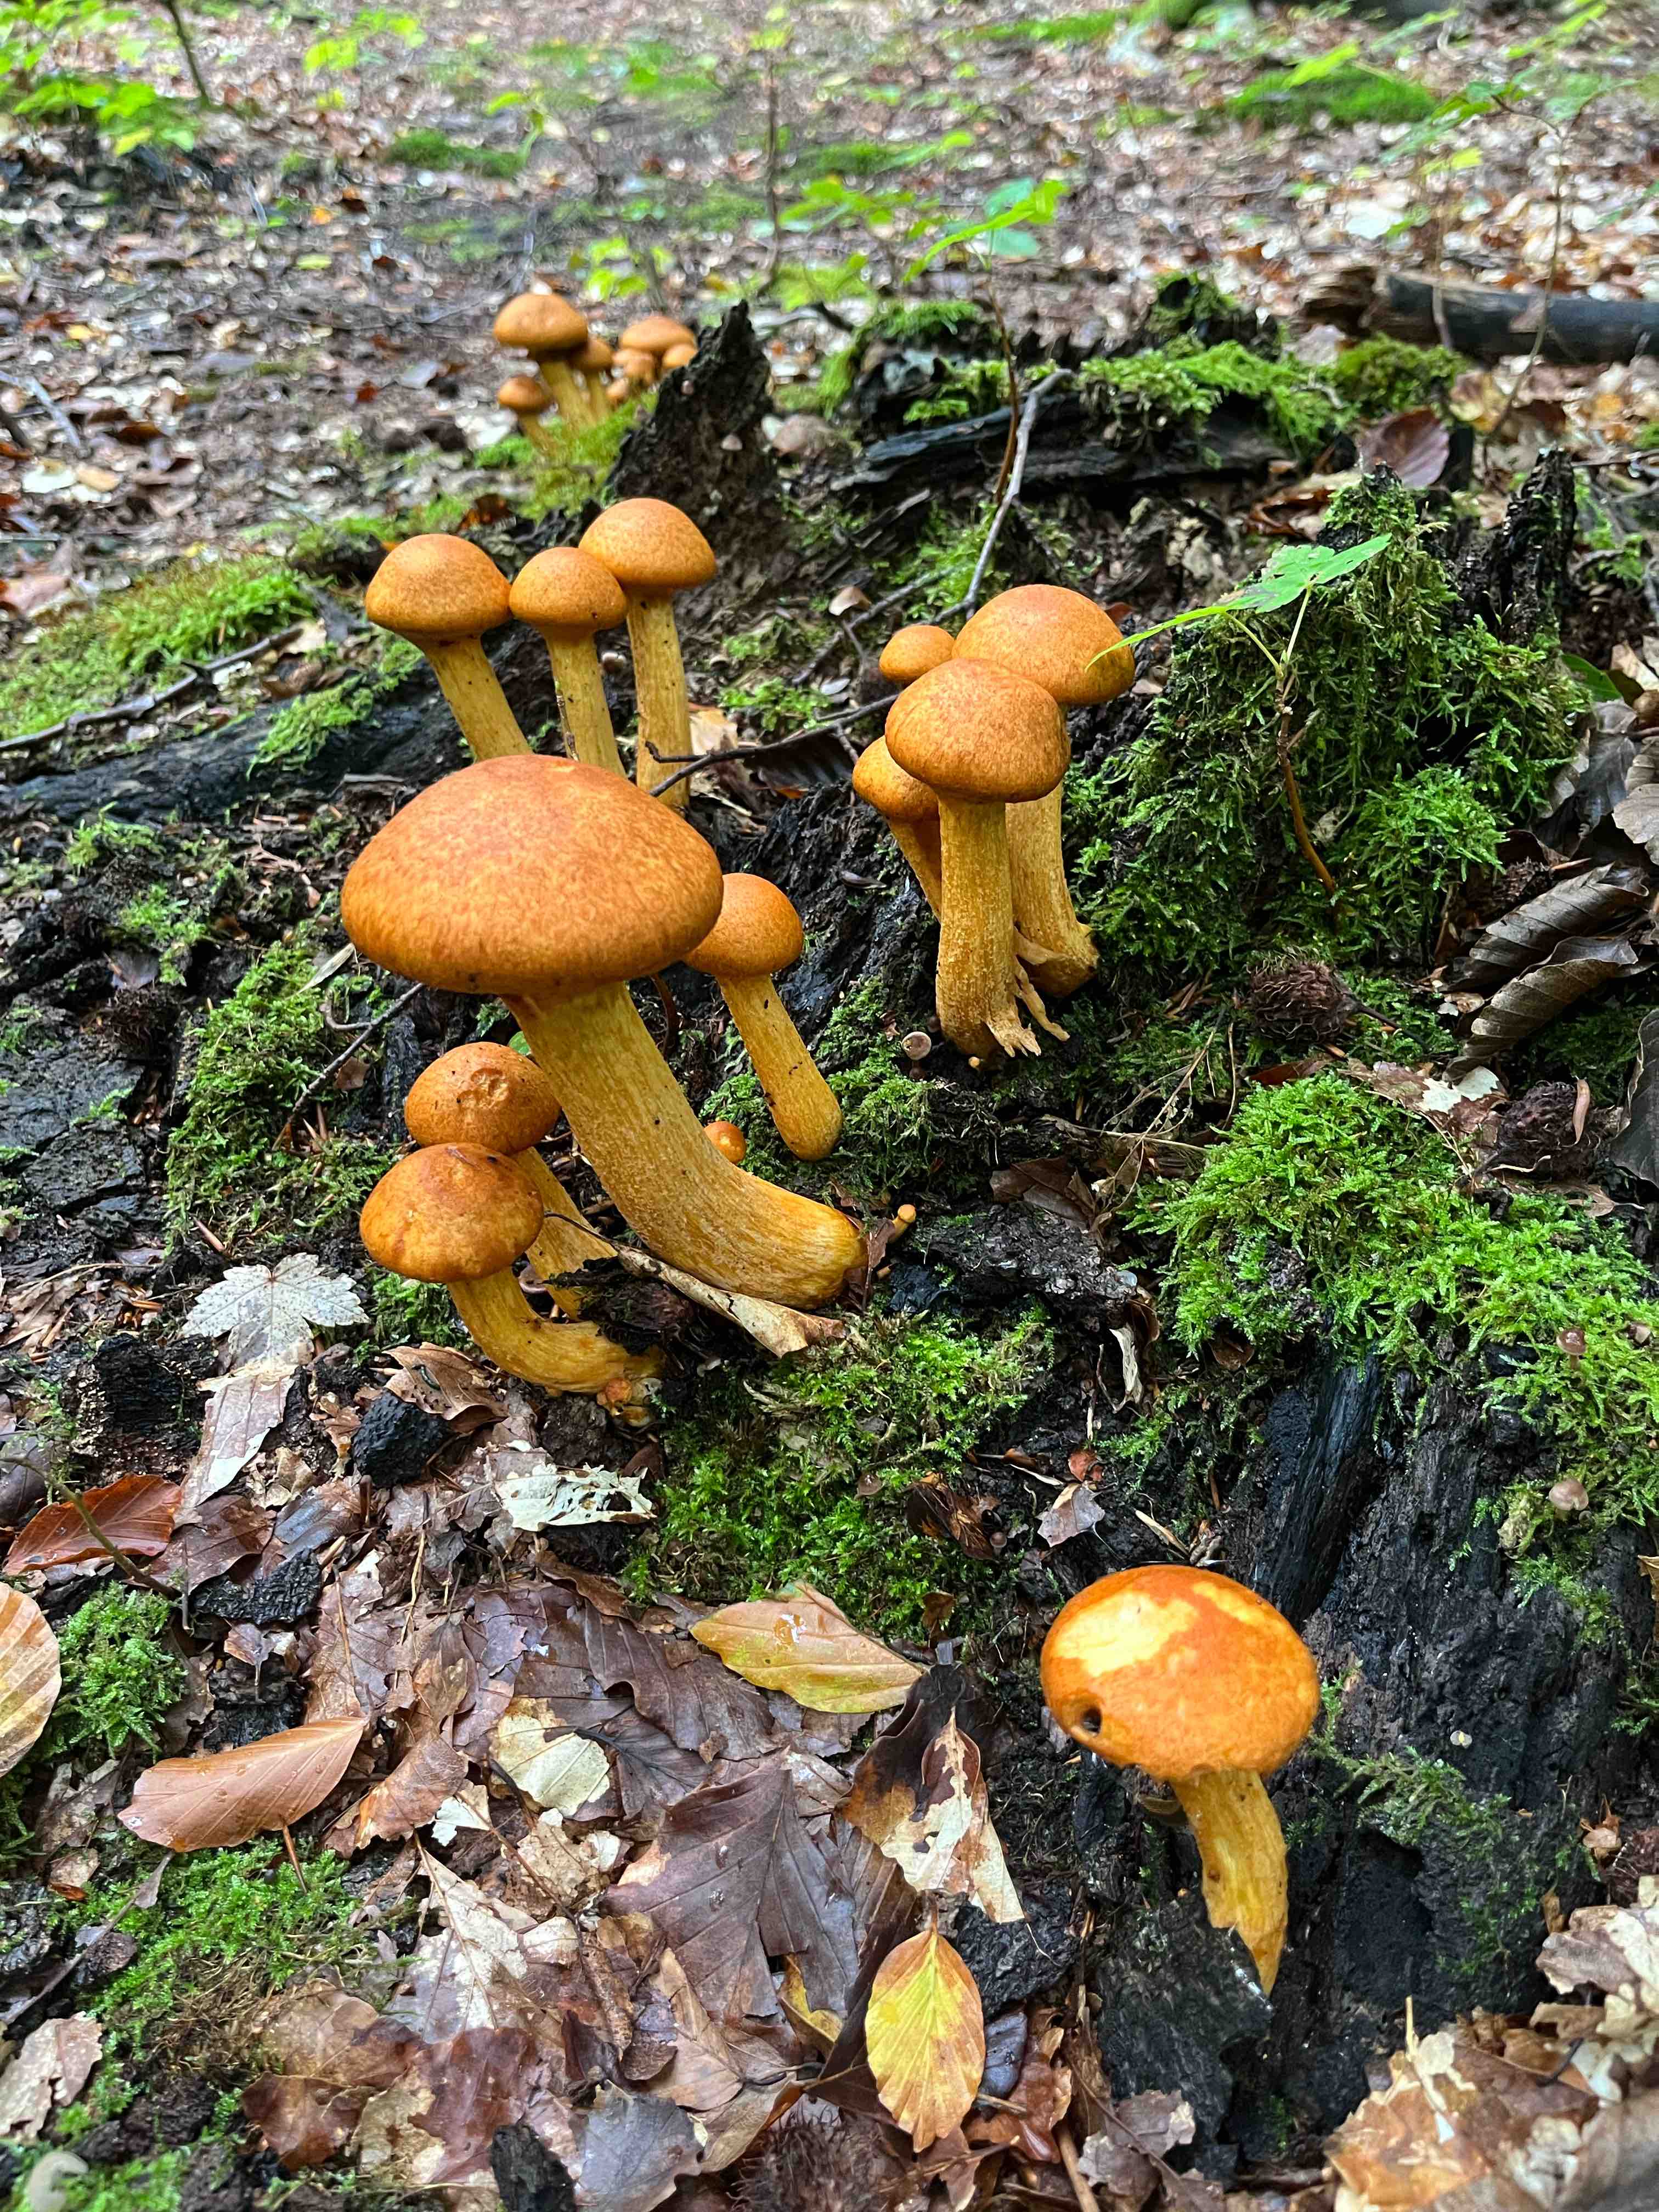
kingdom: Fungi
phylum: Basidiomycota
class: Agaricomycetes
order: Agaricales
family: Hymenogastraceae
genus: Gymnopilus
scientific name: Gymnopilus spectabilis
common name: fibret flammehat
